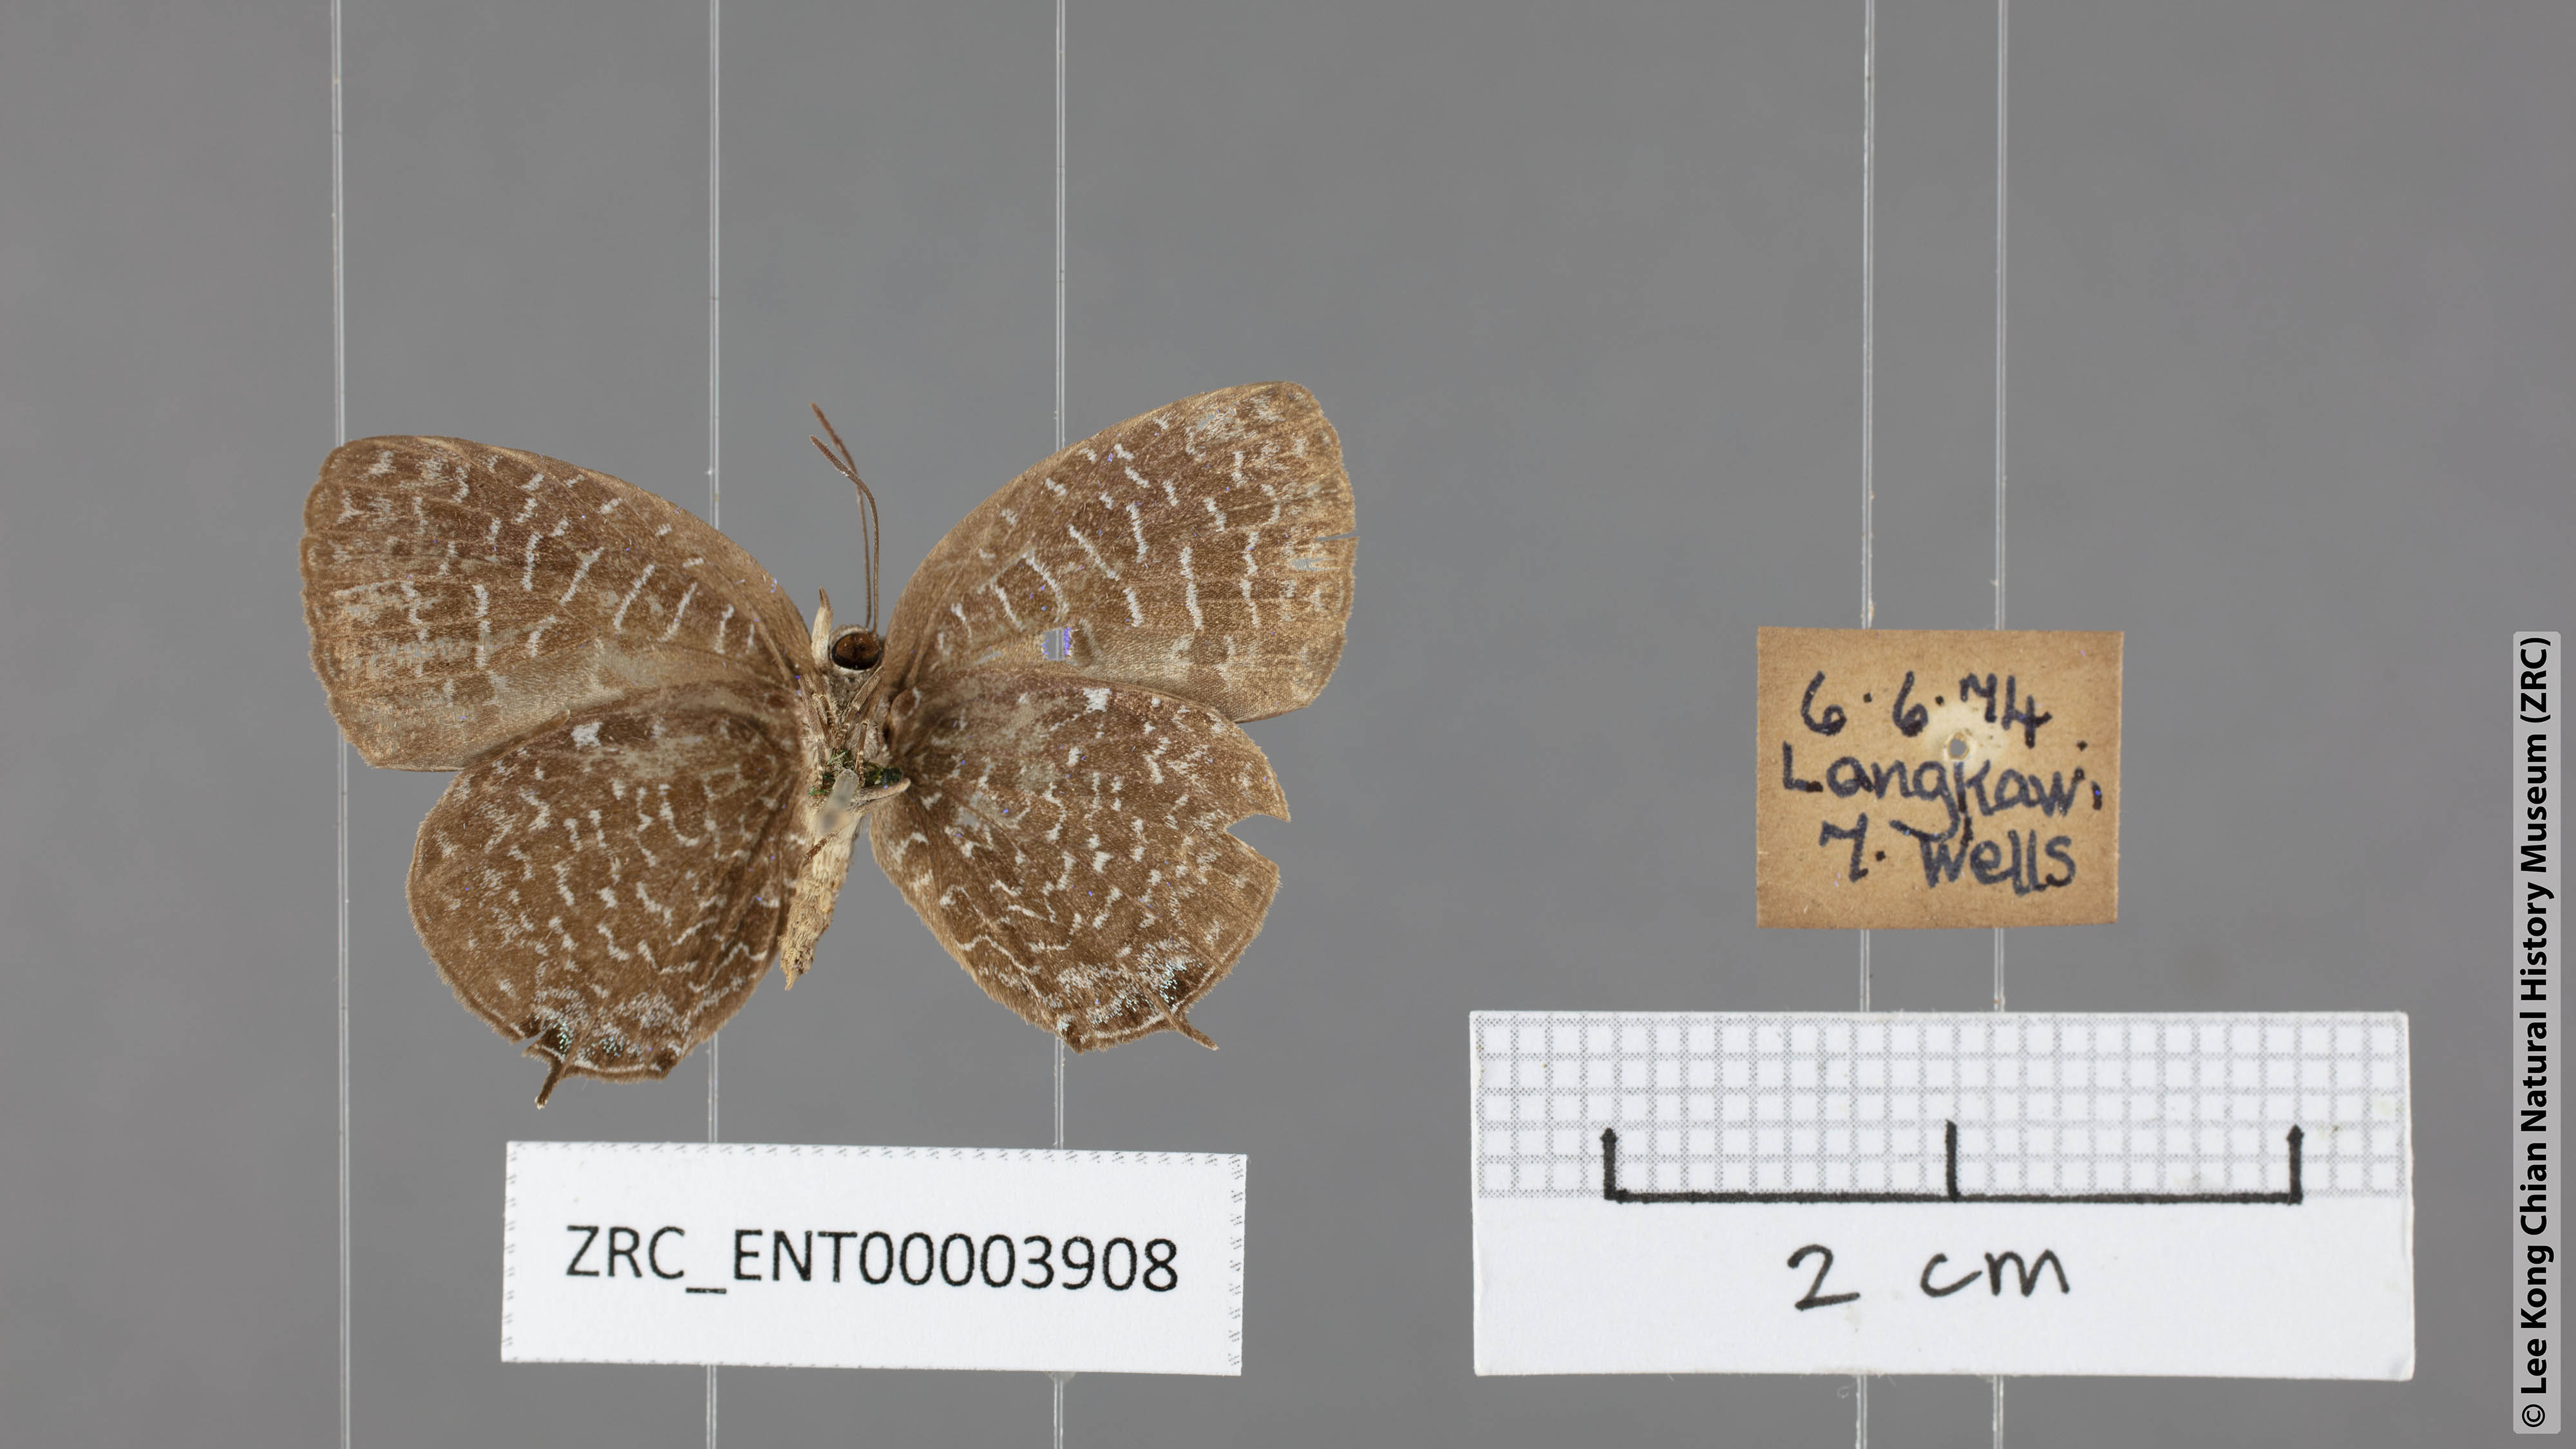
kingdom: Animalia
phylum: Arthropoda
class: Insecta
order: Lepidoptera
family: Lycaenidae
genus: Arhopala
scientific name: Arhopala democritus
